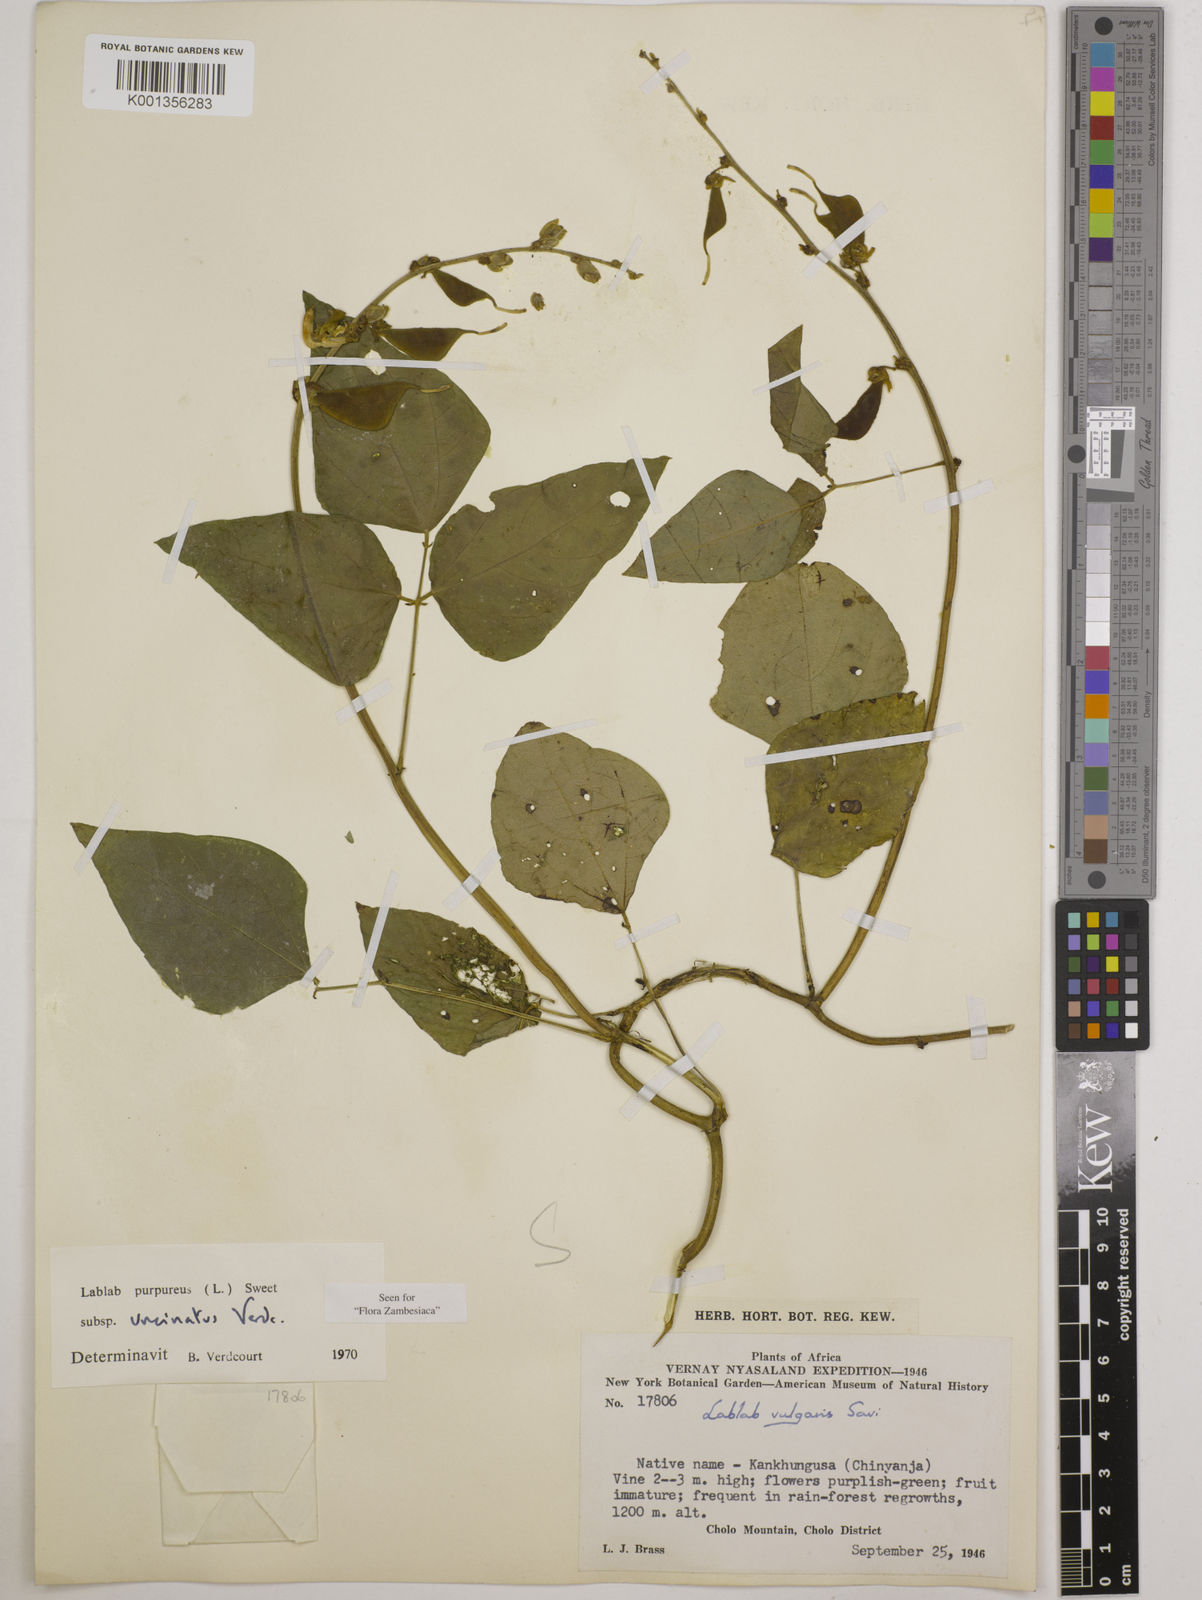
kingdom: Plantae
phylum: Tracheophyta
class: Magnoliopsida
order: Fabales
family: Fabaceae
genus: Lablab
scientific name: Lablab
